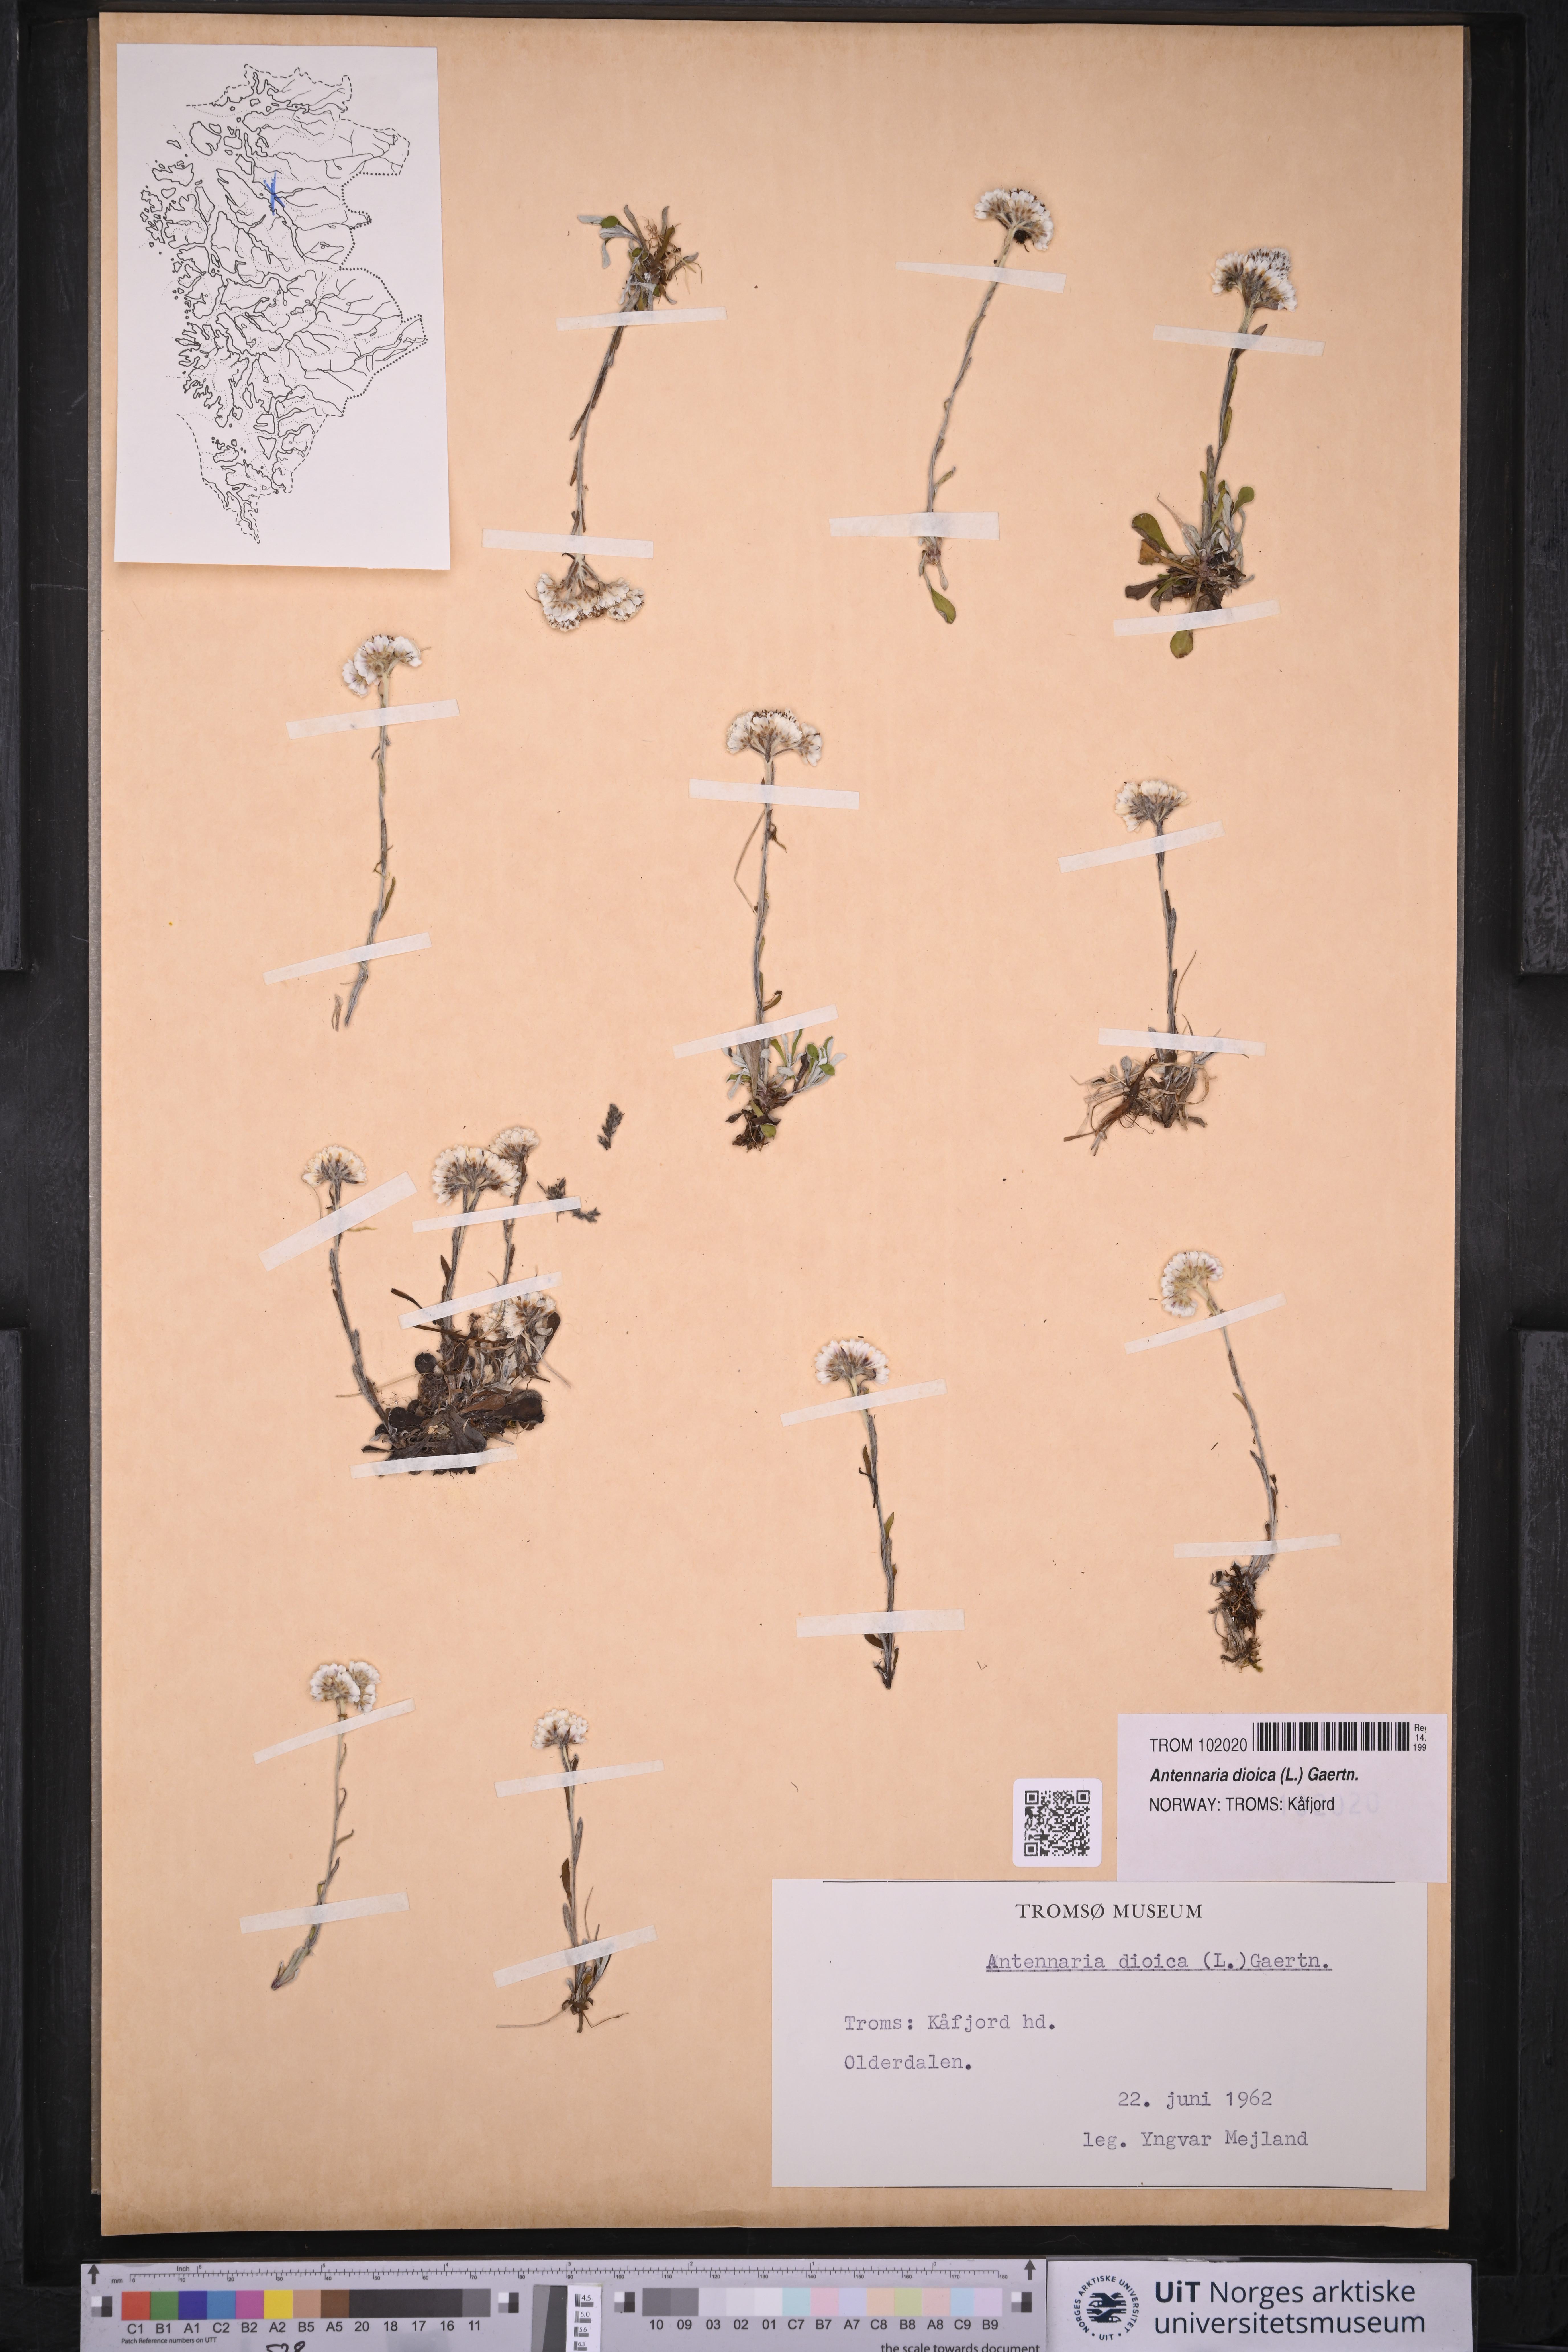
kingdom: Plantae
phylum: Tracheophyta
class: Magnoliopsida
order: Asterales
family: Asteraceae
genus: Antennaria
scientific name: Antennaria dioica
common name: Mountain everlasting
